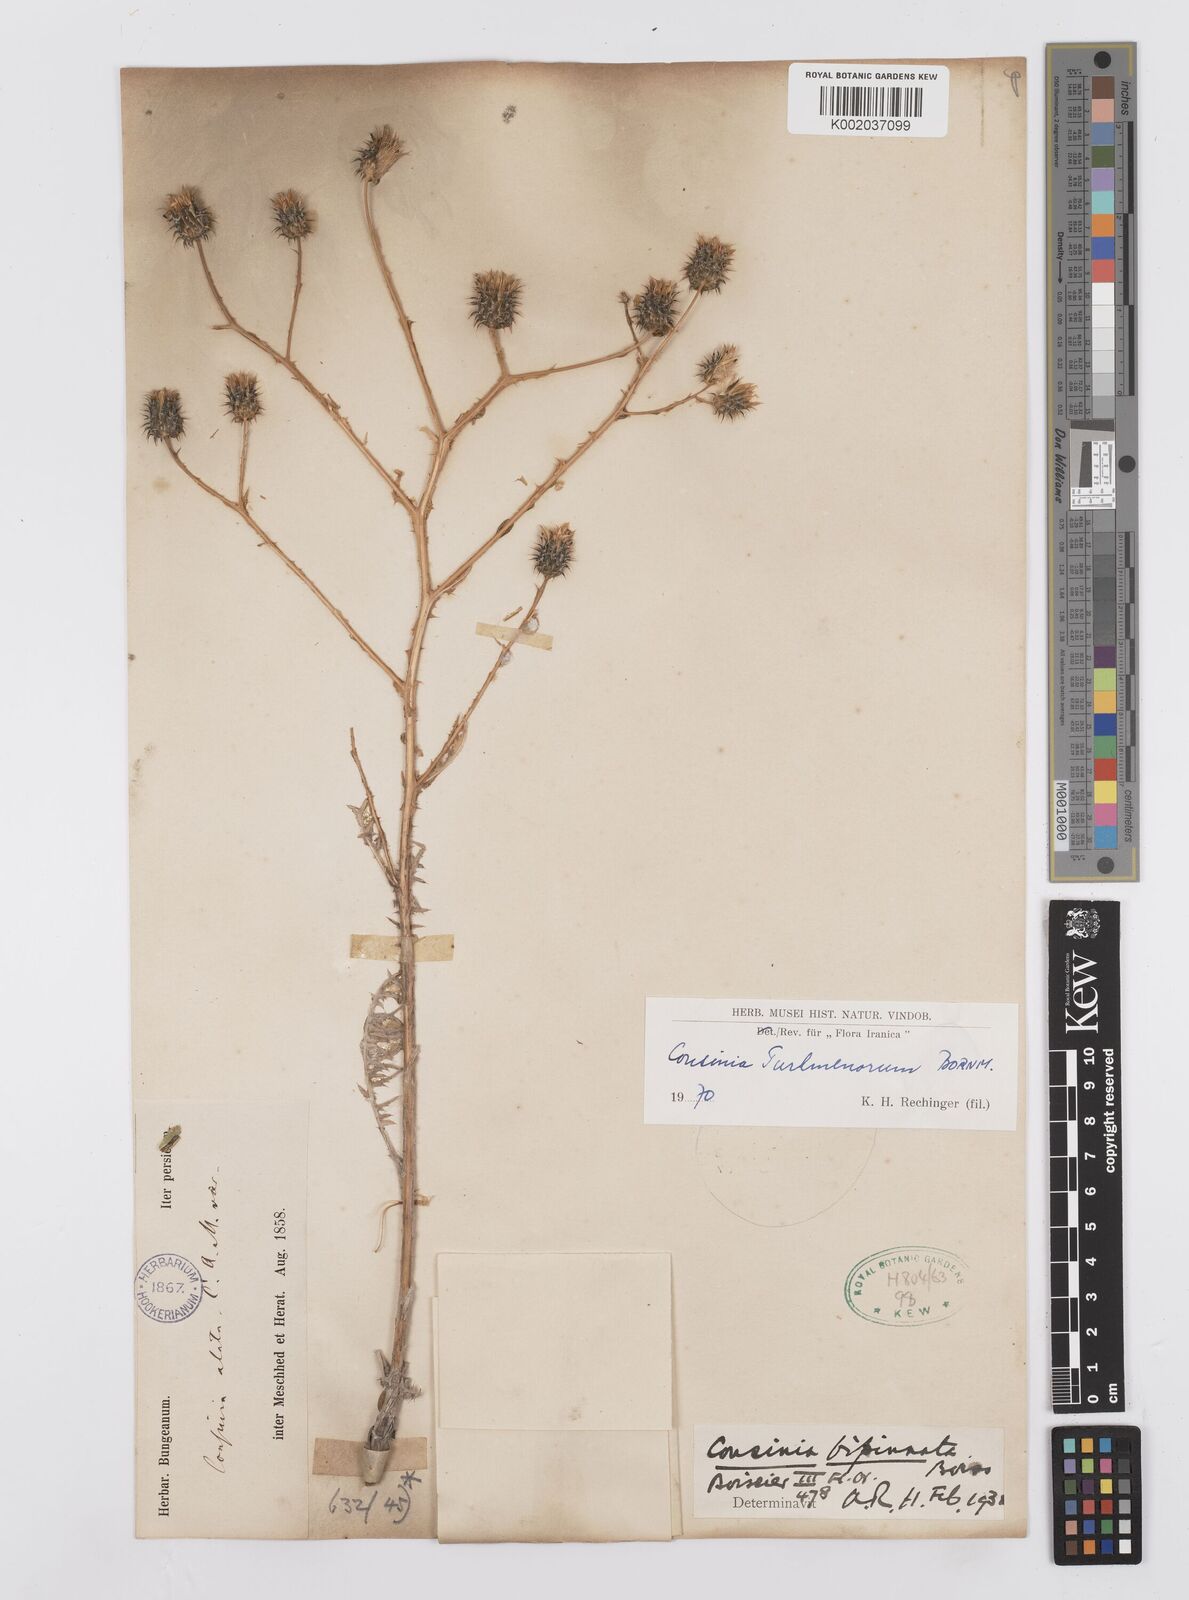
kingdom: Plantae
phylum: Tracheophyta
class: Magnoliopsida
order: Asterales
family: Asteraceae
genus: Cousinia
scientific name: Cousinia turkmenorum
